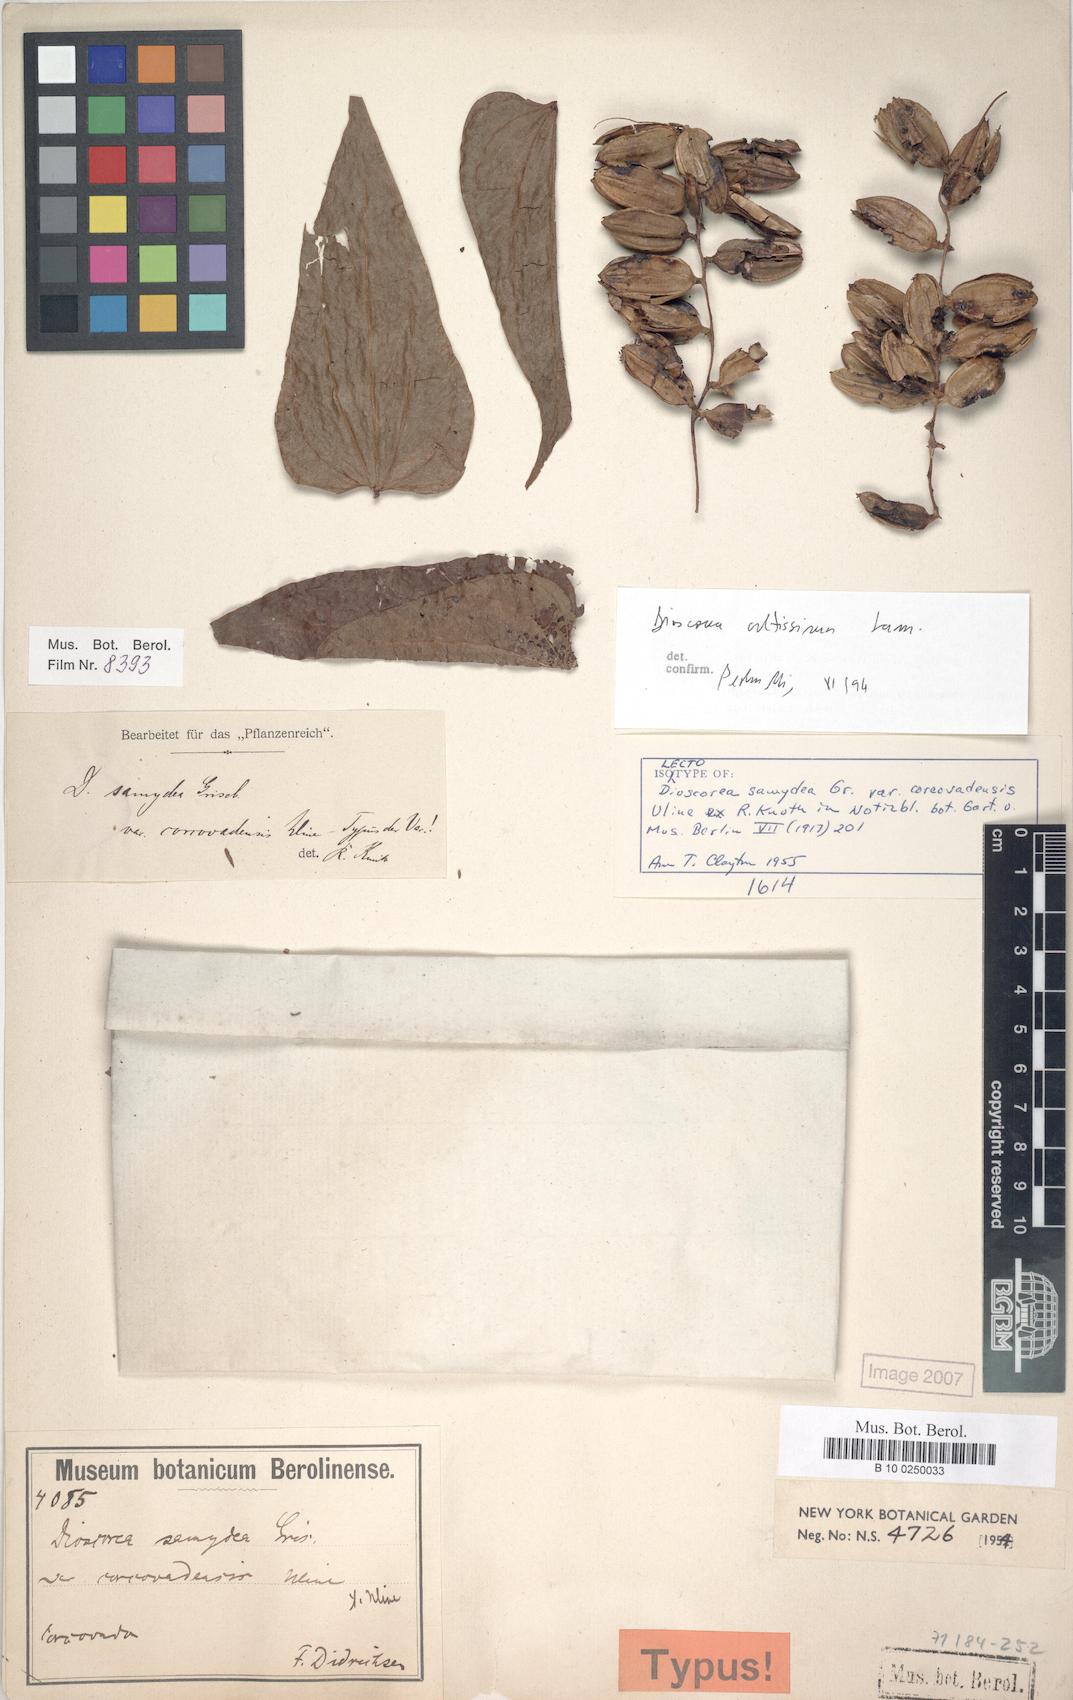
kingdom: Plantae
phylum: Tracheophyta
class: Liliopsida
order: Dioscoreales
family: Dioscoreaceae
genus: Dioscorea
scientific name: Dioscorea cayenensis
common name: Attoto yam
